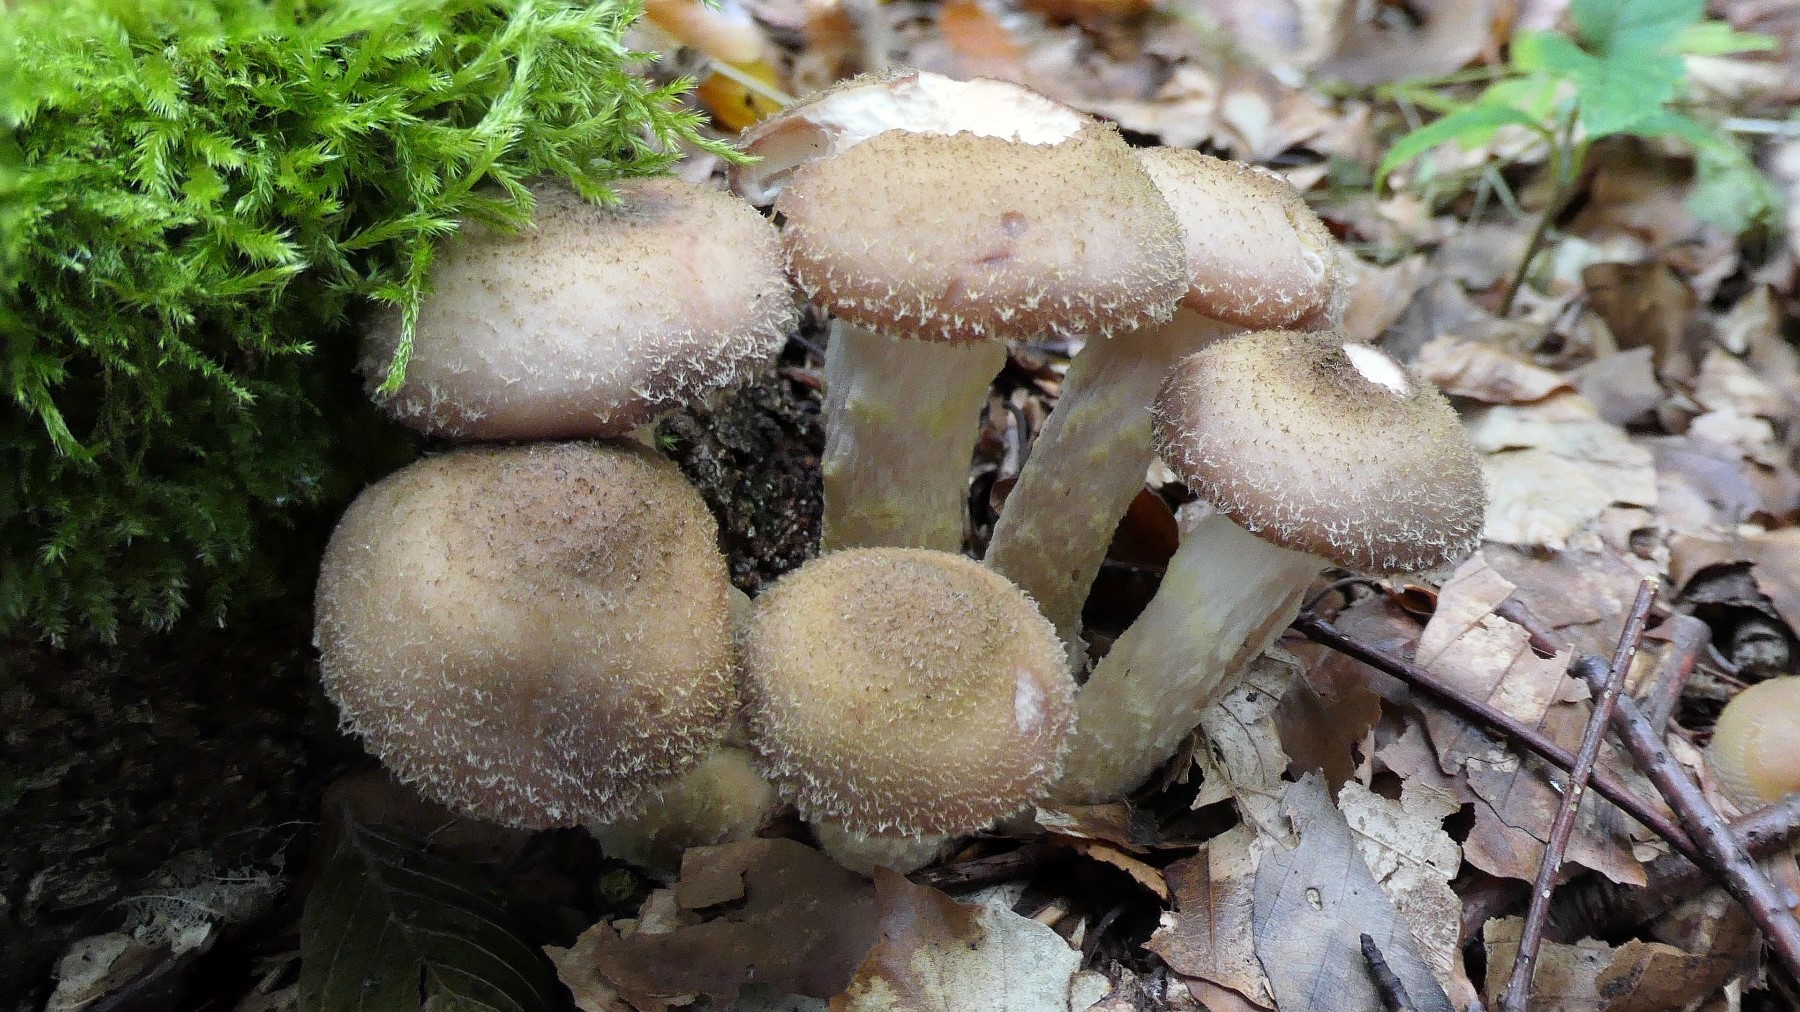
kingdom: Fungi
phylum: Basidiomycota
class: Agaricomycetes
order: Agaricales
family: Physalacriaceae
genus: Armillaria
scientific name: Armillaria lutea
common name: køllestokket honningsvamp
